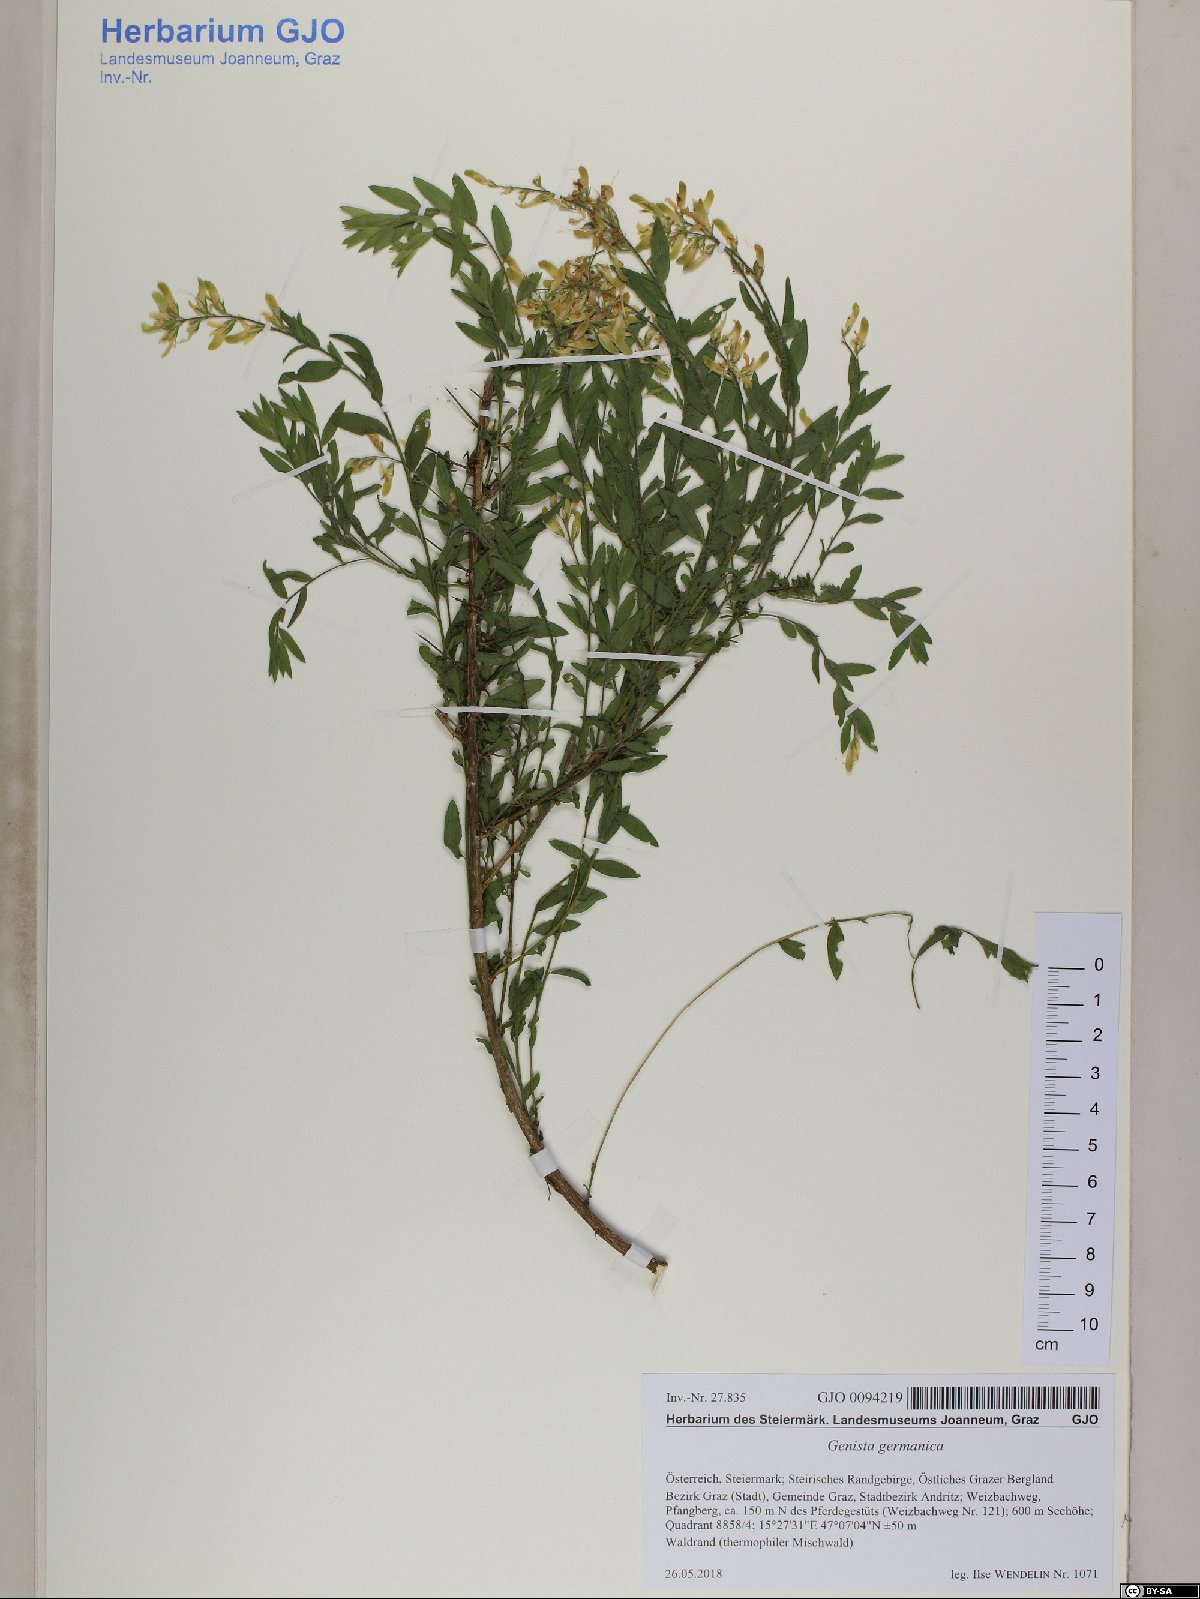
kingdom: Plantae
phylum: Tracheophyta
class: Magnoliopsida
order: Fabales
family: Fabaceae
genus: Genista
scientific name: Genista germanica
